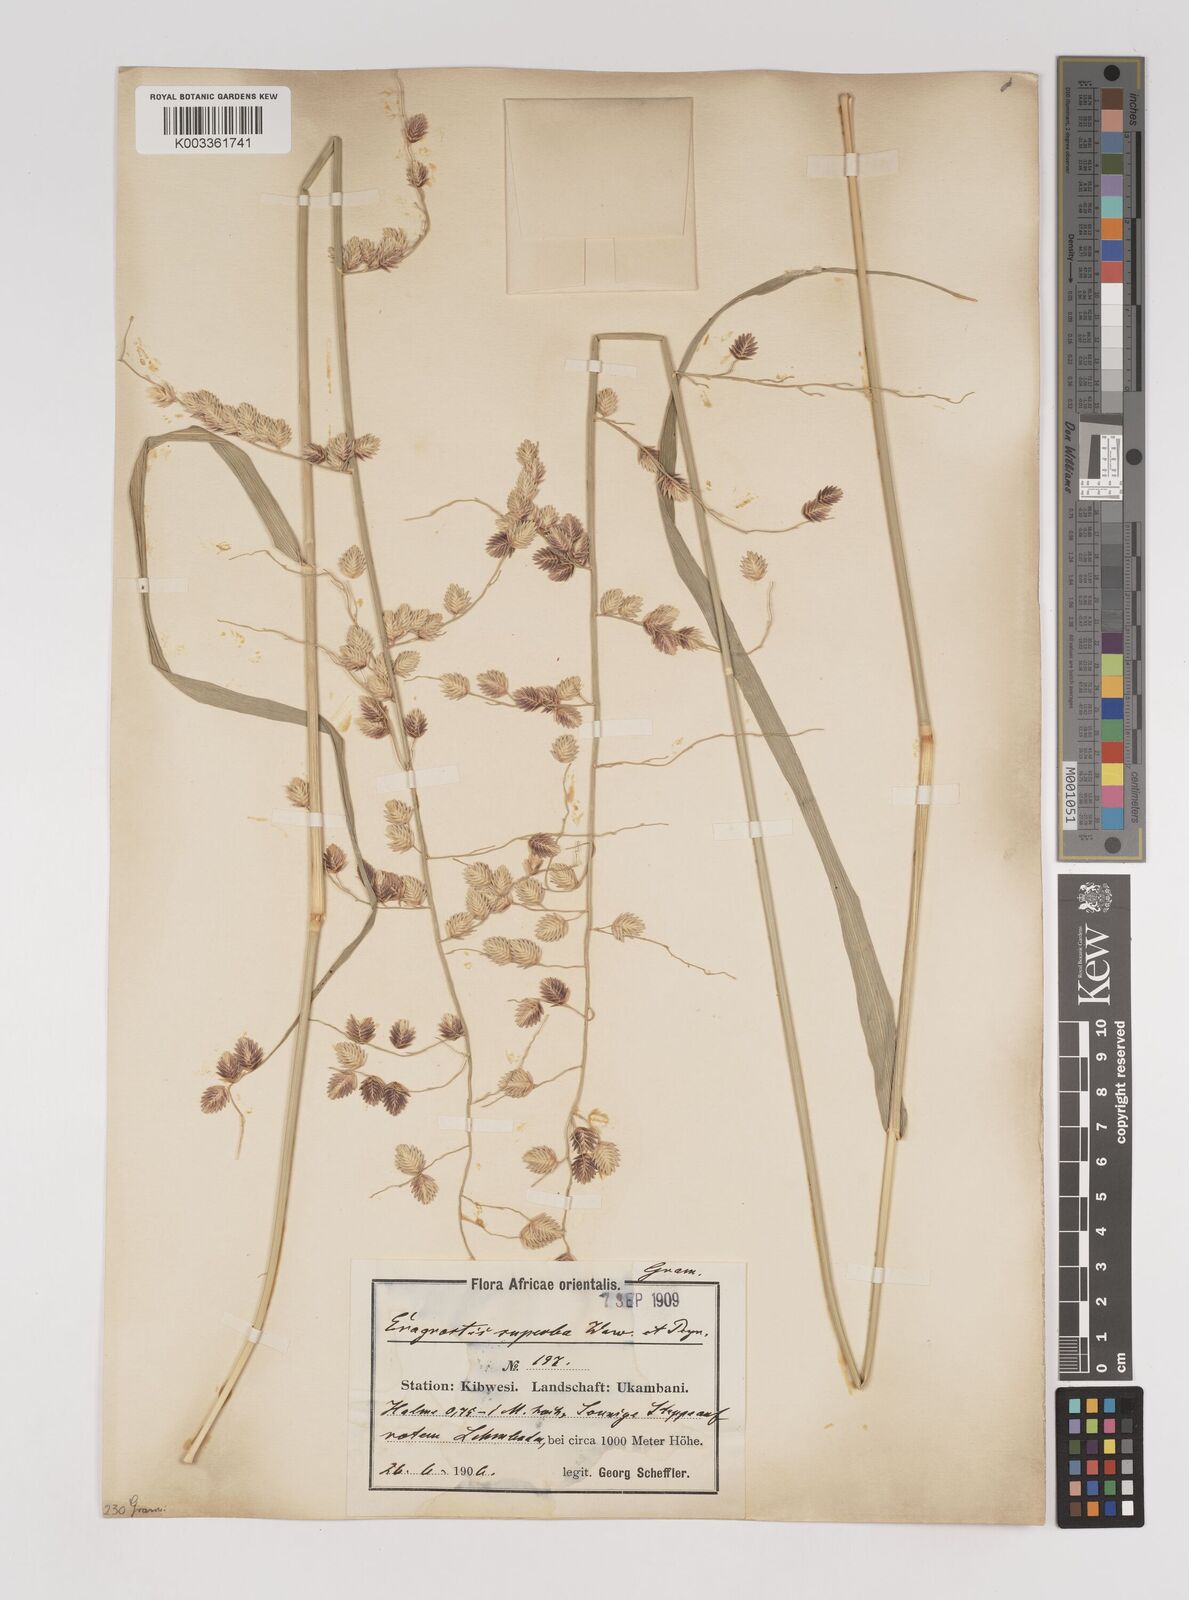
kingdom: Plantae
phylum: Tracheophyta
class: Liliopsida
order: Poales
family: Poaceae
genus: Eragrostis
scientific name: Eragrostis superba
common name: Wilman lovegrass
